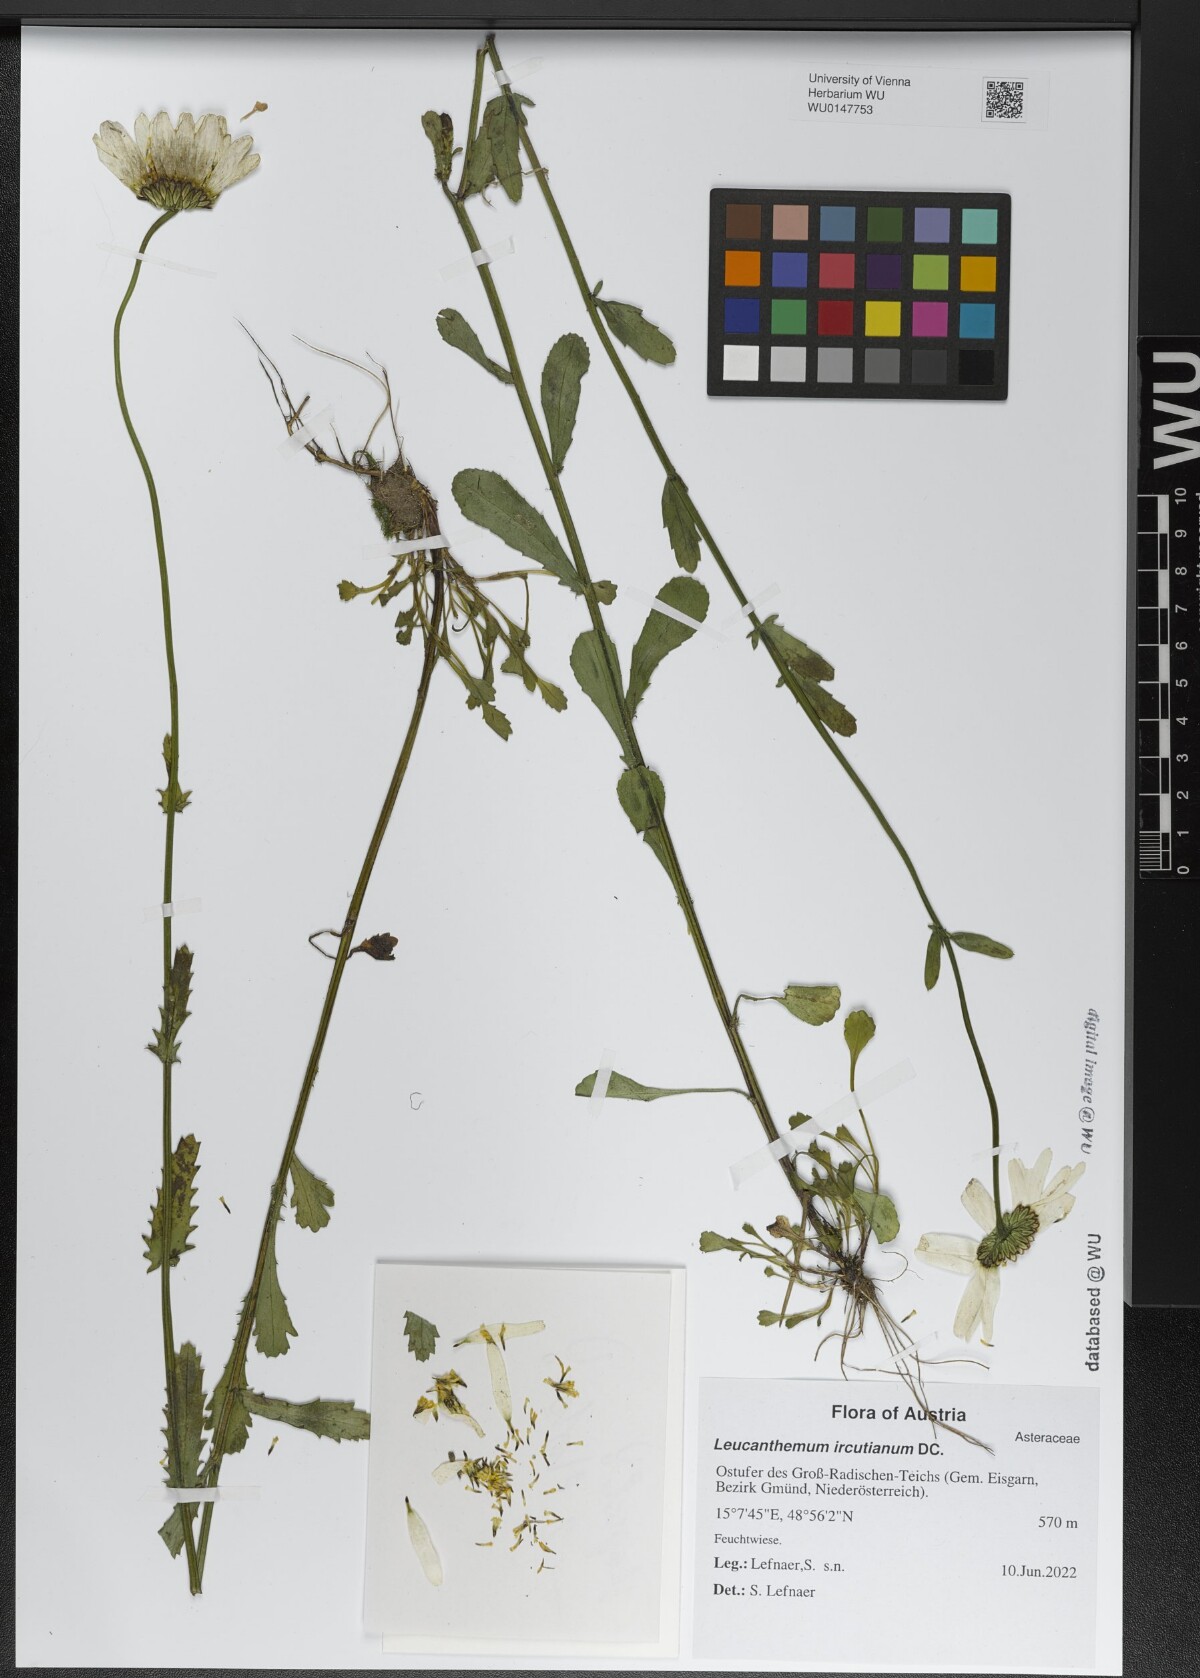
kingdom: Plantae
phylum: Tracheophyta
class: Magnoliopsida
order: Asterales
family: Asteraceae
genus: Leucanthemum
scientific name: Leucanthemum ircutianum
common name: Daisy
